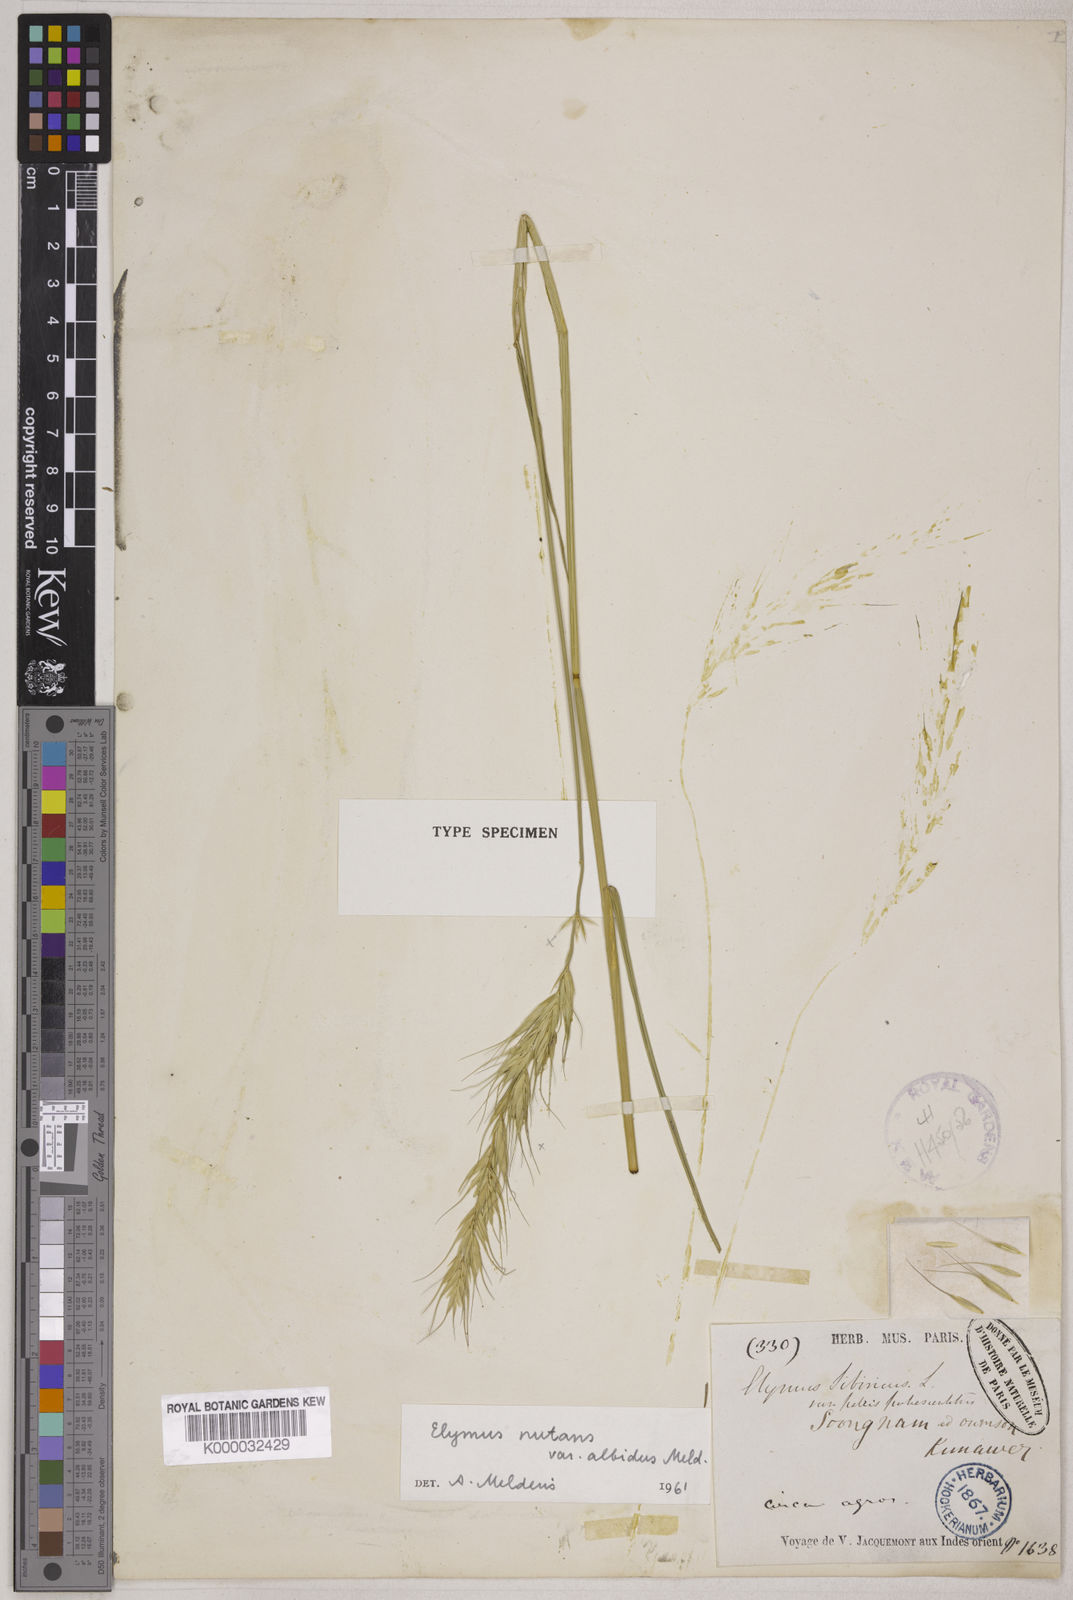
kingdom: Plantae
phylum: Tracheophyta
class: Liliopsida
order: Poales
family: Poaceae
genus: Elymus
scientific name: Elymus
